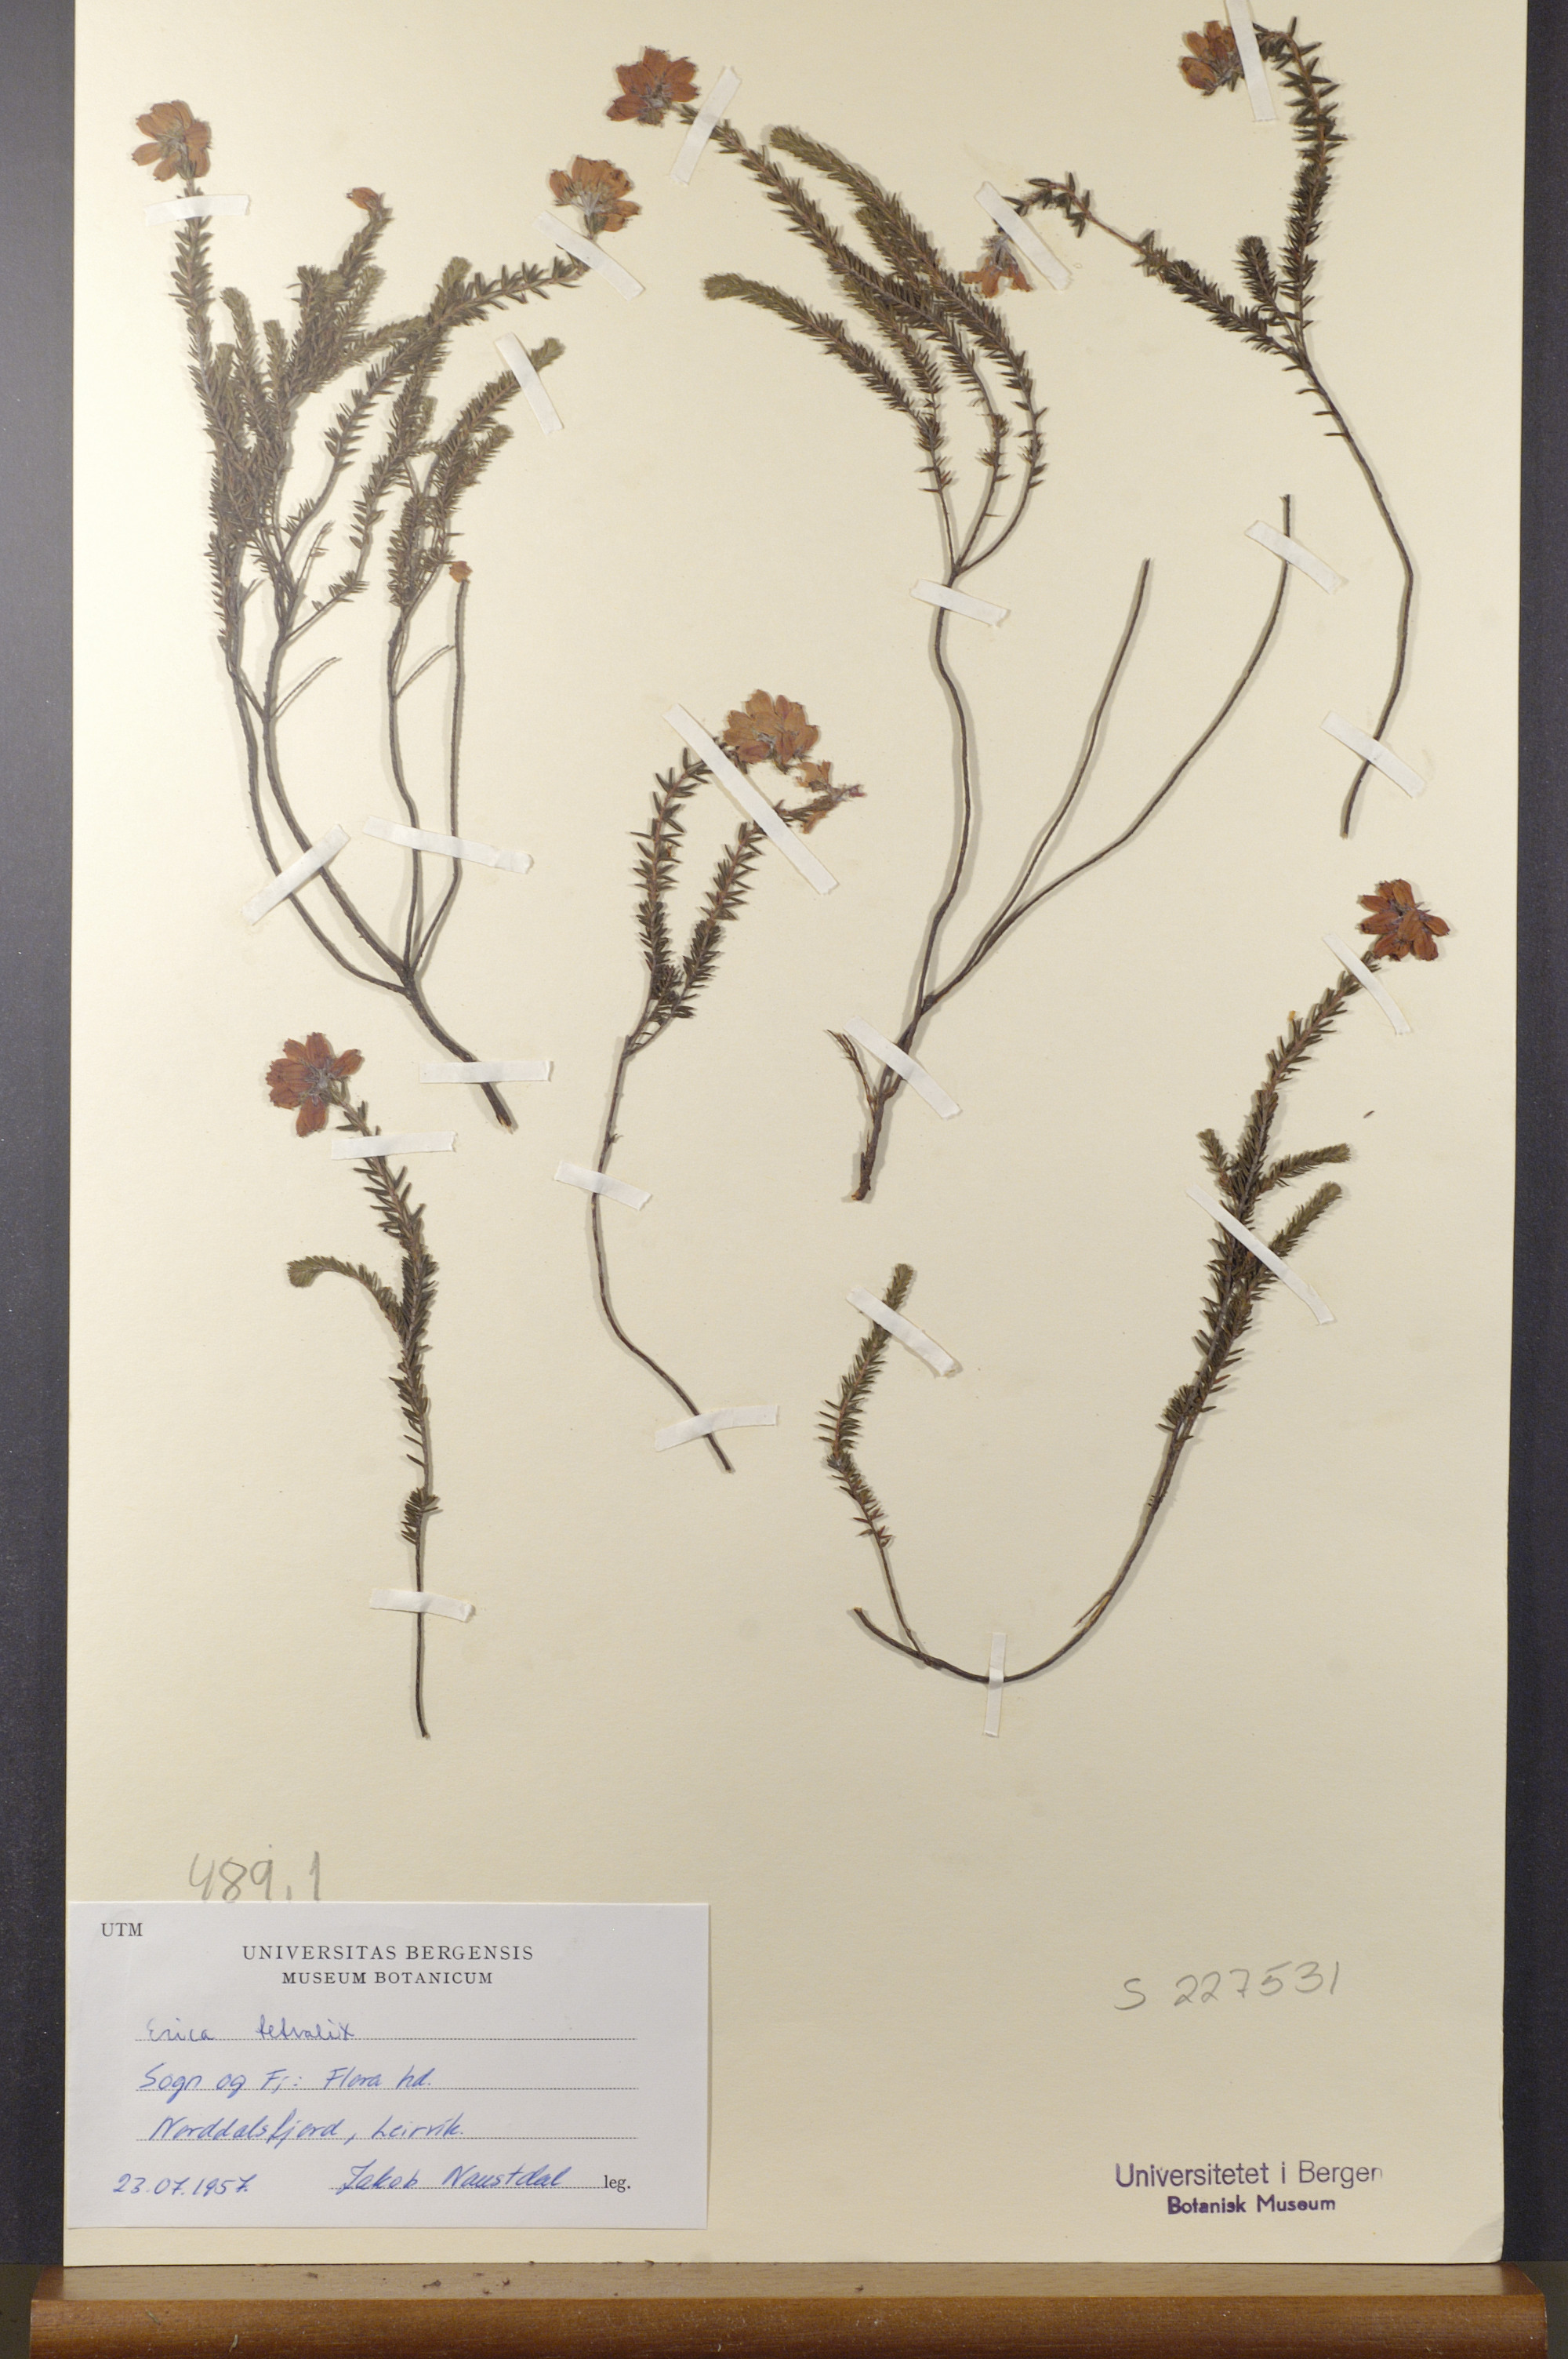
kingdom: Plantae
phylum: Tracheophyta
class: Magnoliopsida
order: Ericales
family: Ericaceae
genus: Erica
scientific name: Erica tetralix
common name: Cross-leaved heath
